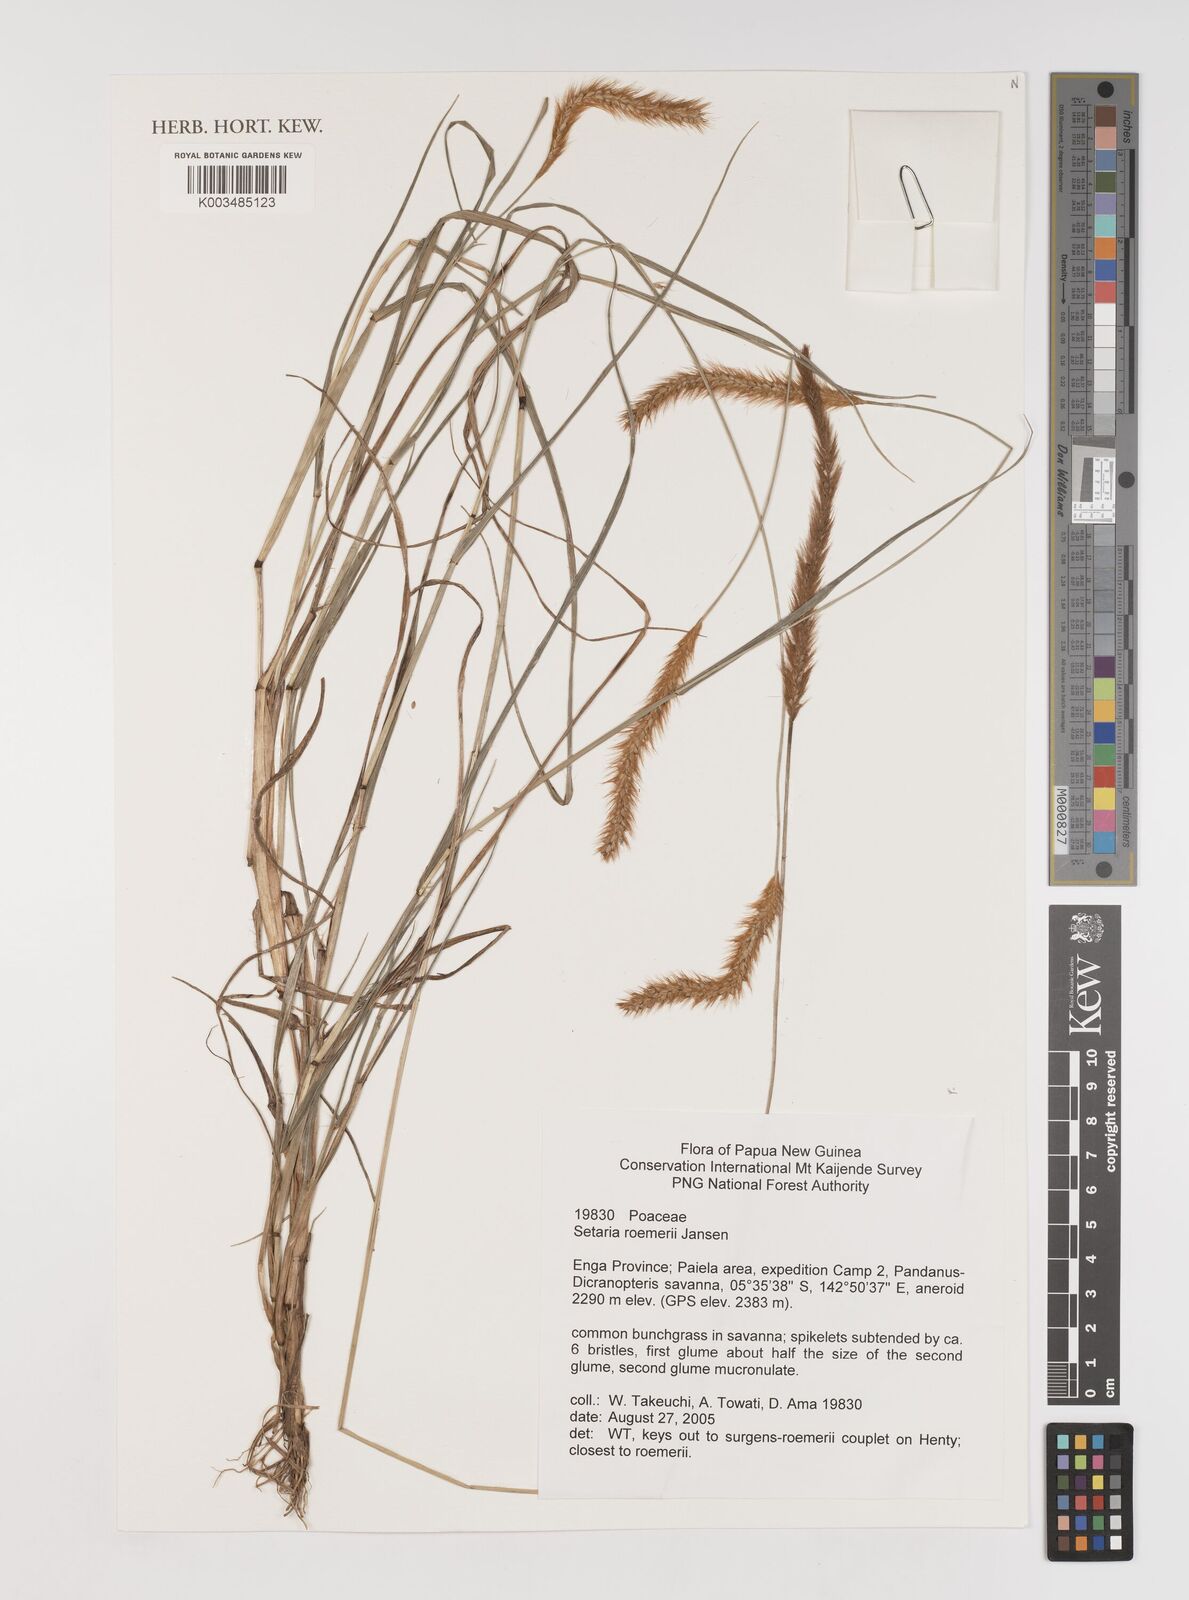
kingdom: Plantae
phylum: Tracheophyta
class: Liliopsida
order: Poales
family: Poaceae
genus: Setaria
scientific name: Setaria roemeri
